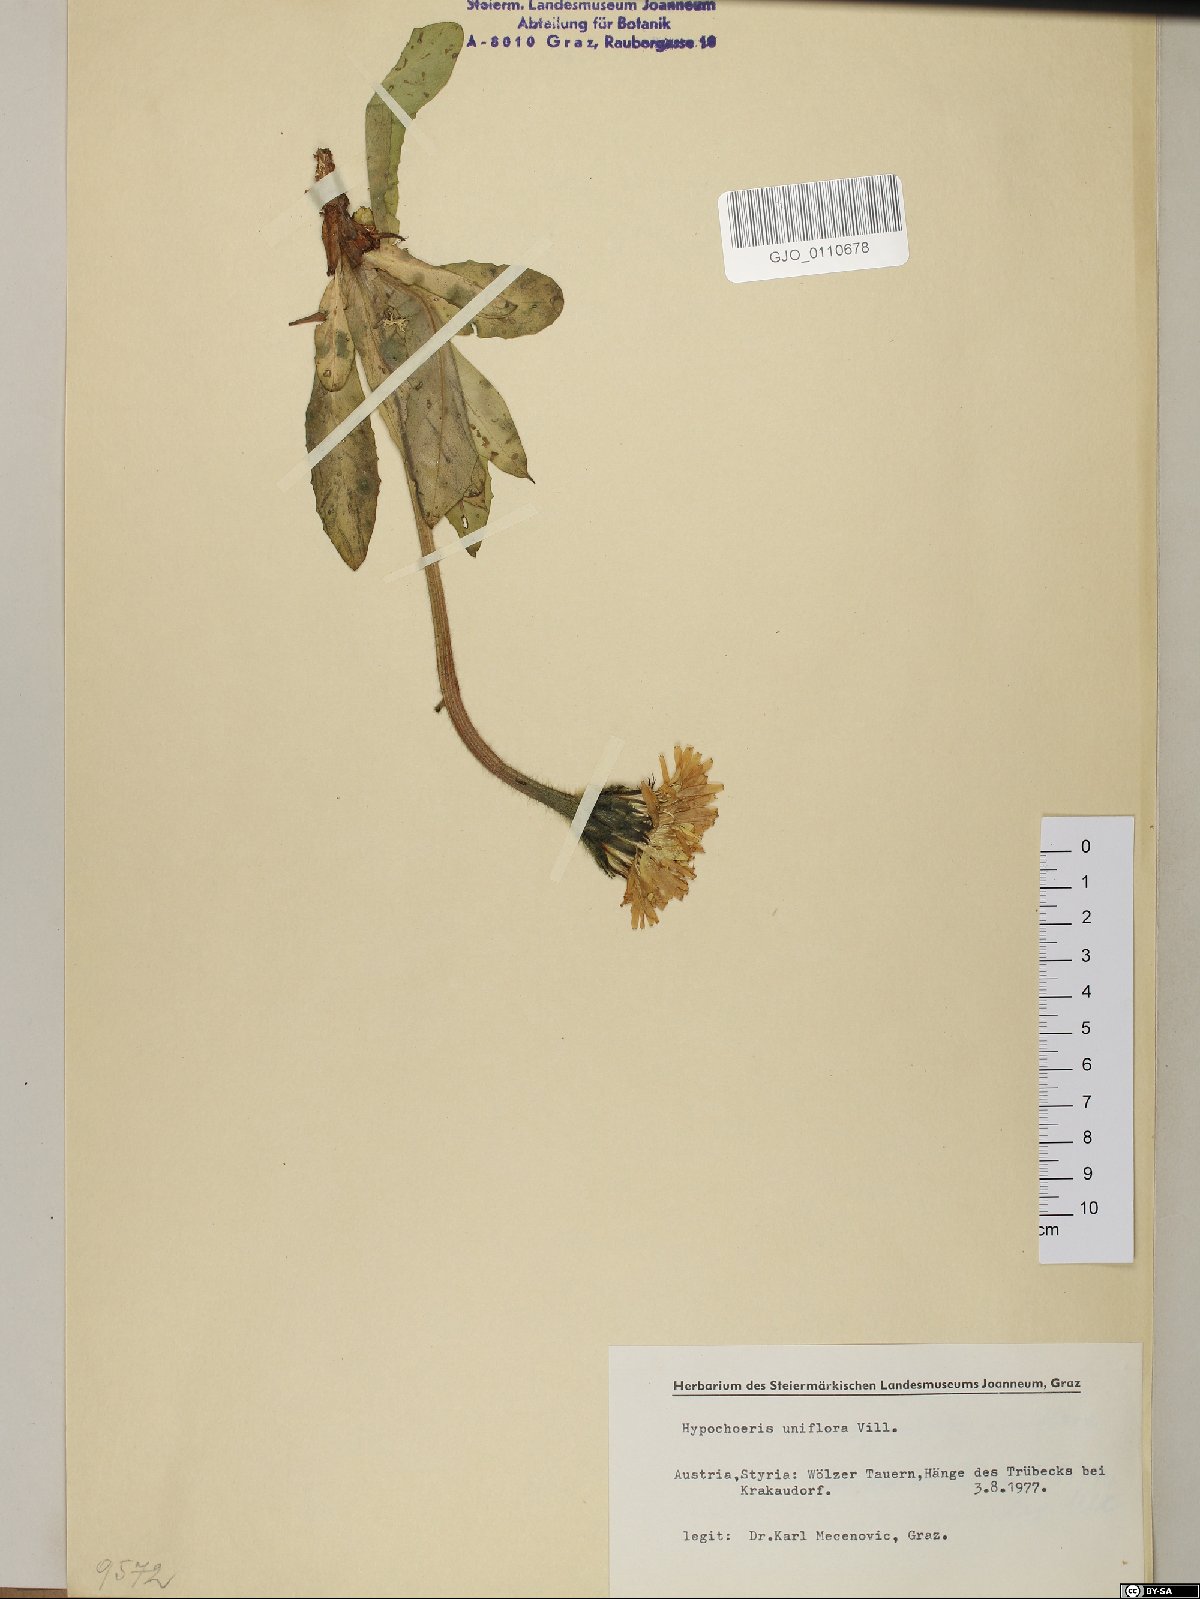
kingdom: Plantae
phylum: Tracheophyta
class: Magnoliopsida
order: Asterales
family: Asteraceae
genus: Trommsdorffia
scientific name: Trommsdorffia uniflora
